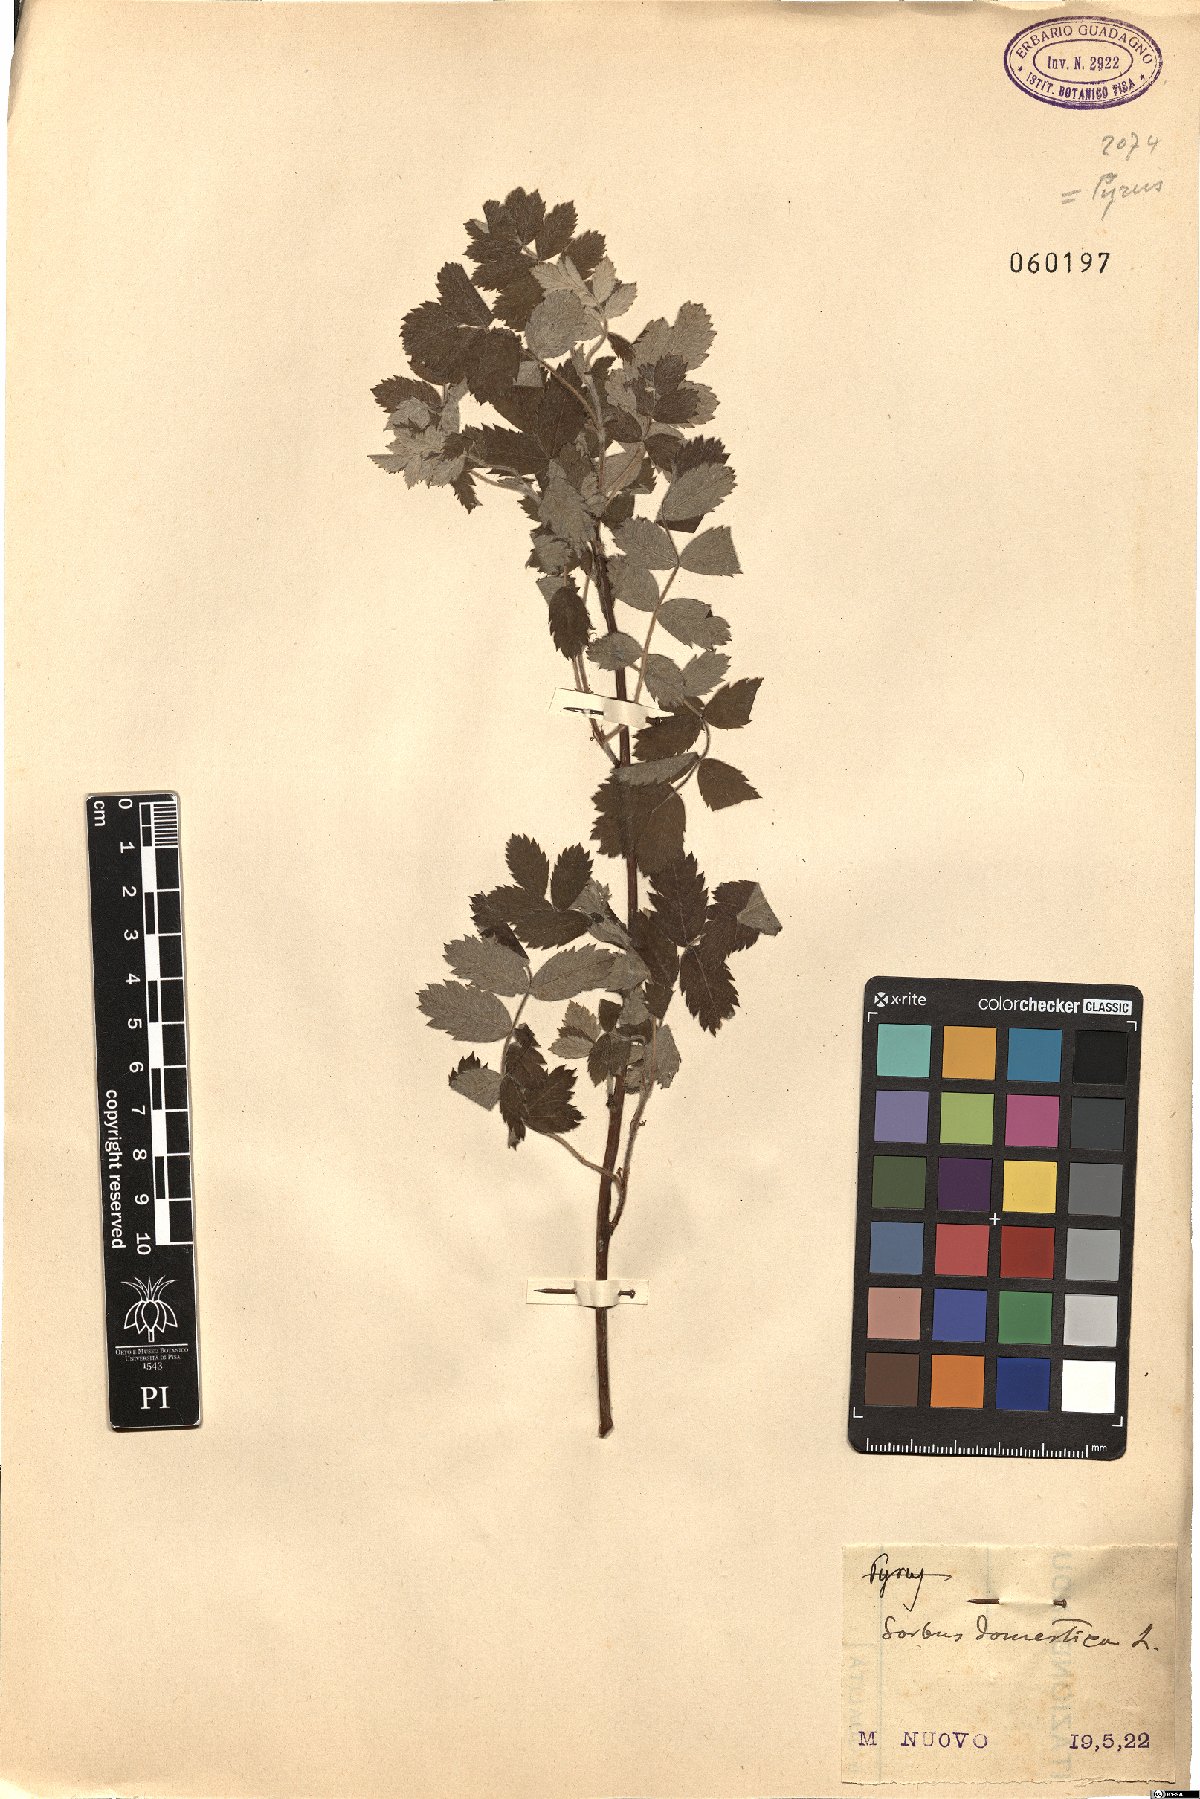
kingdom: Plantae
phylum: Tracheophyta
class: Magnoliopsida
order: Rosales
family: Rosaceae
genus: Cormus
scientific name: Cormus domestica
